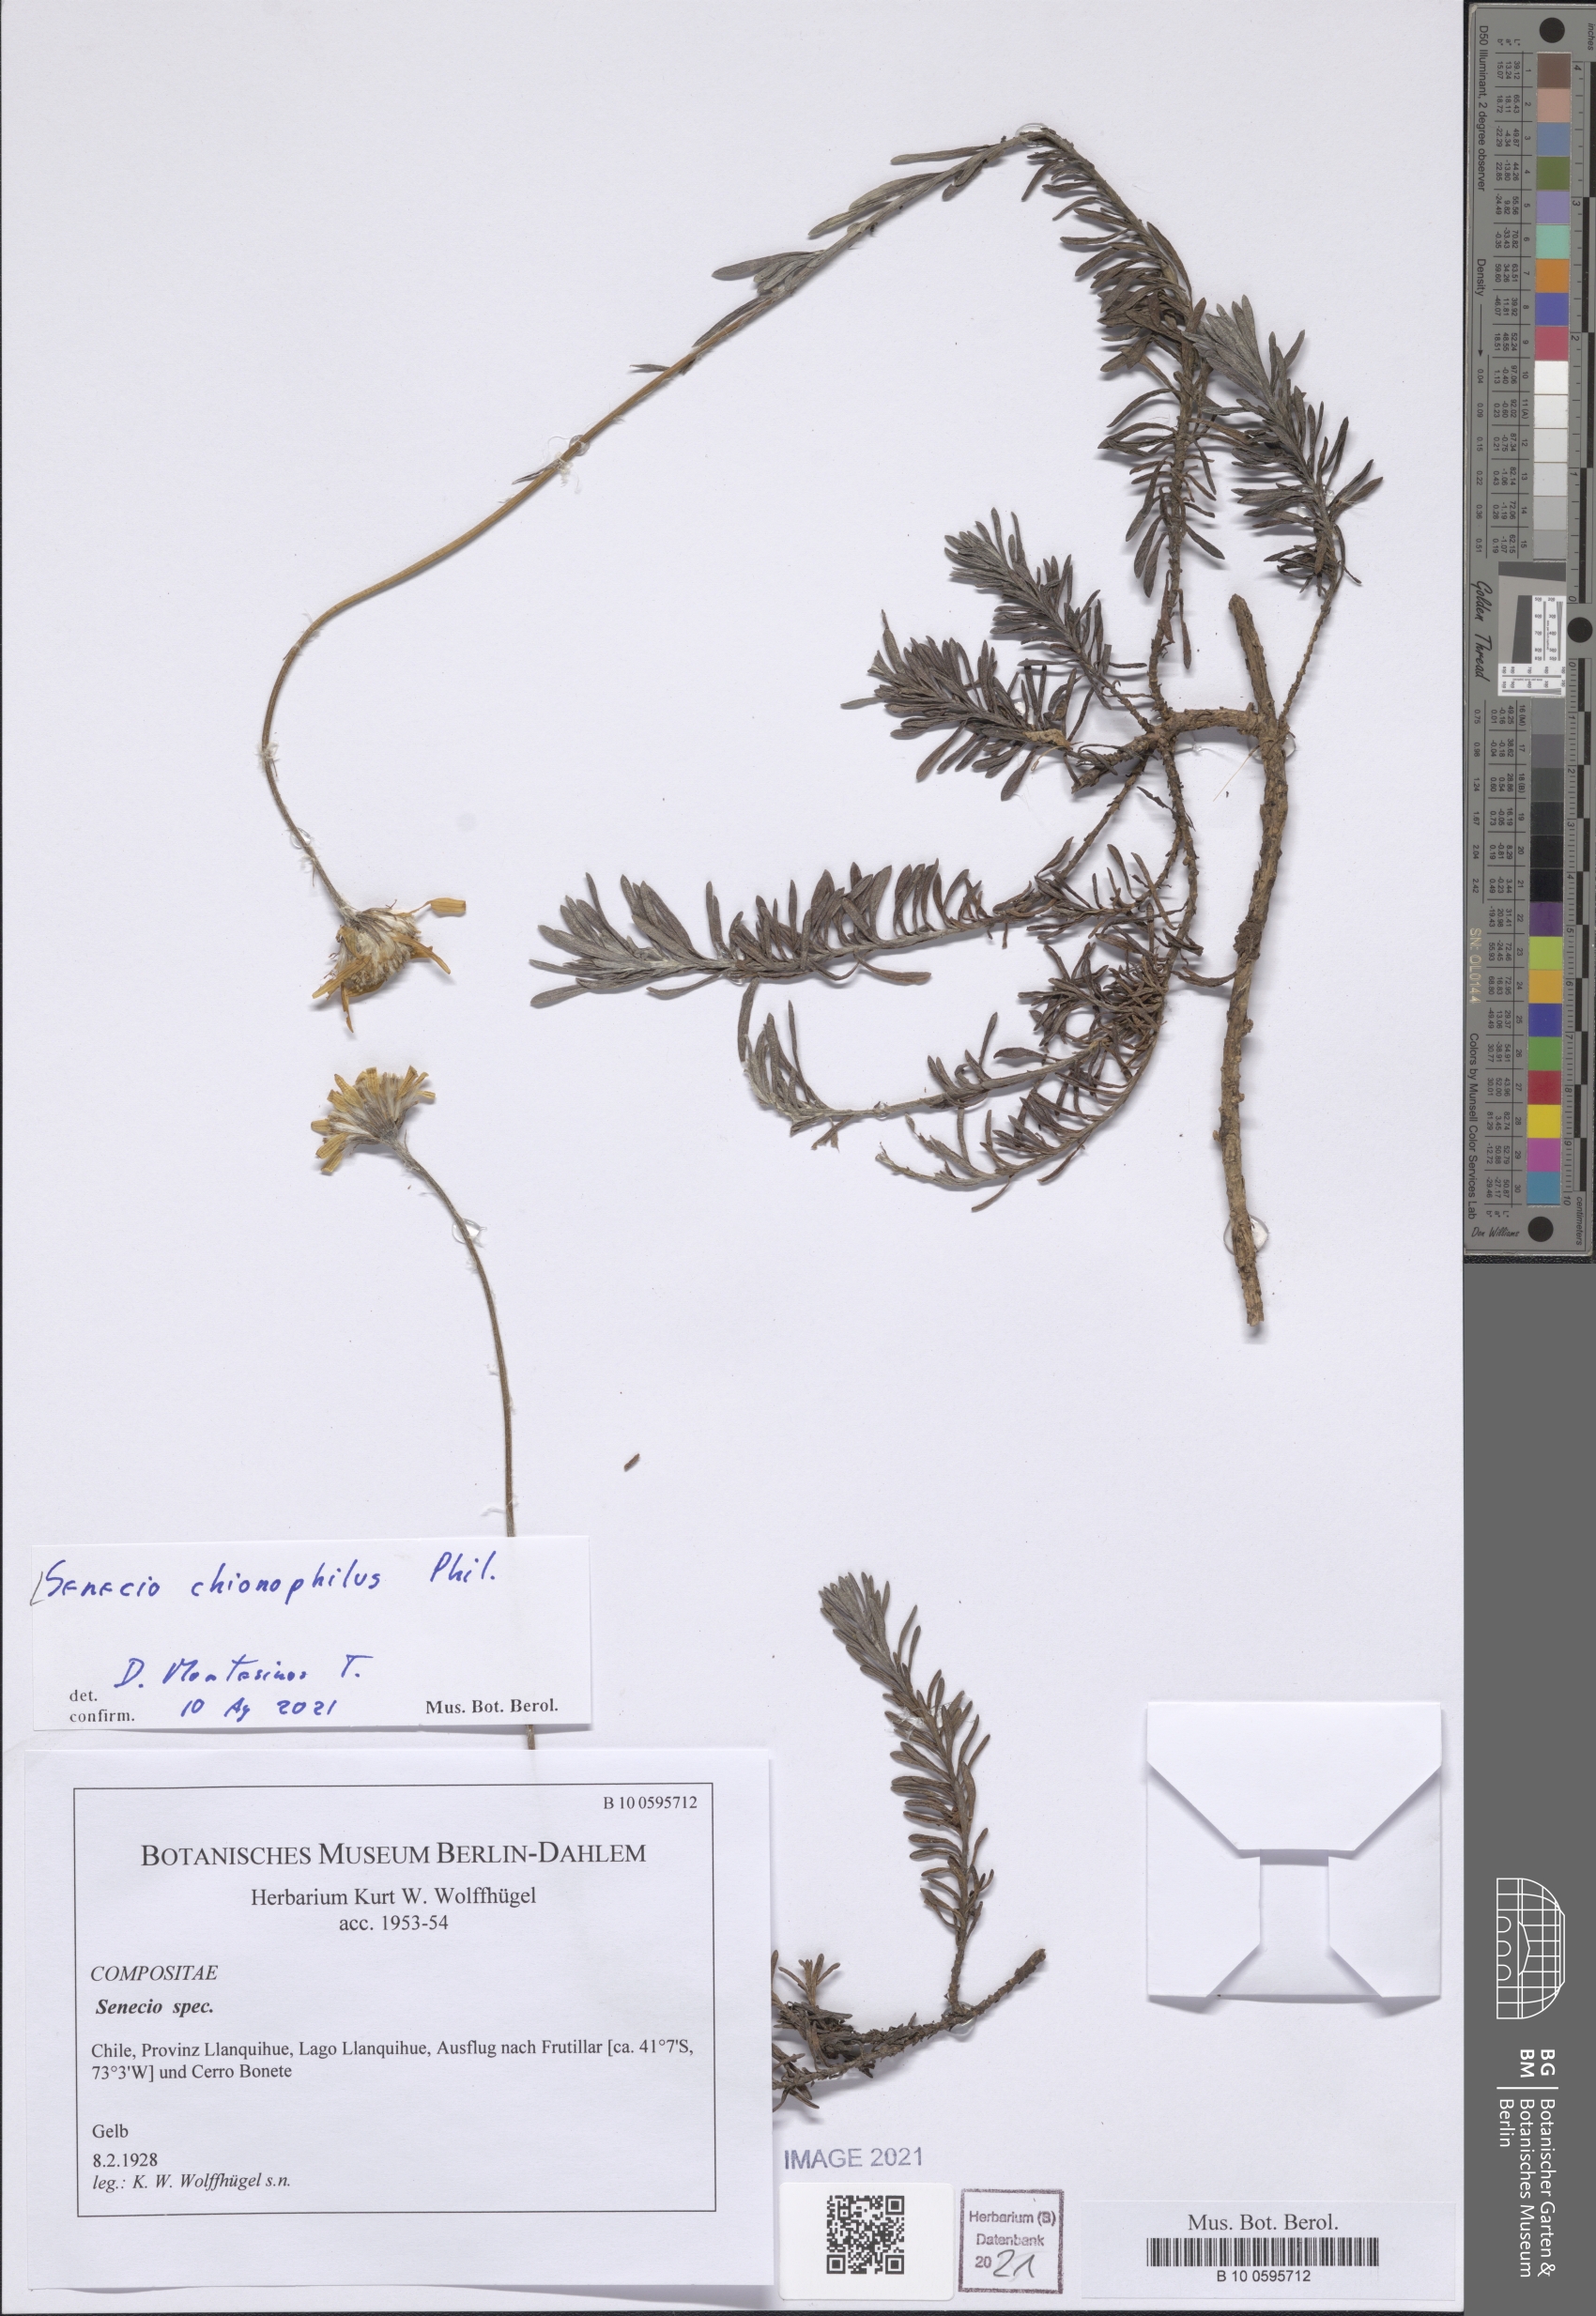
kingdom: Plantae
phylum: Tracheophyta
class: Magnoliopsida
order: Asterales
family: Asteraceae
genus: Senecio
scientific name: Senecio chionophilus
